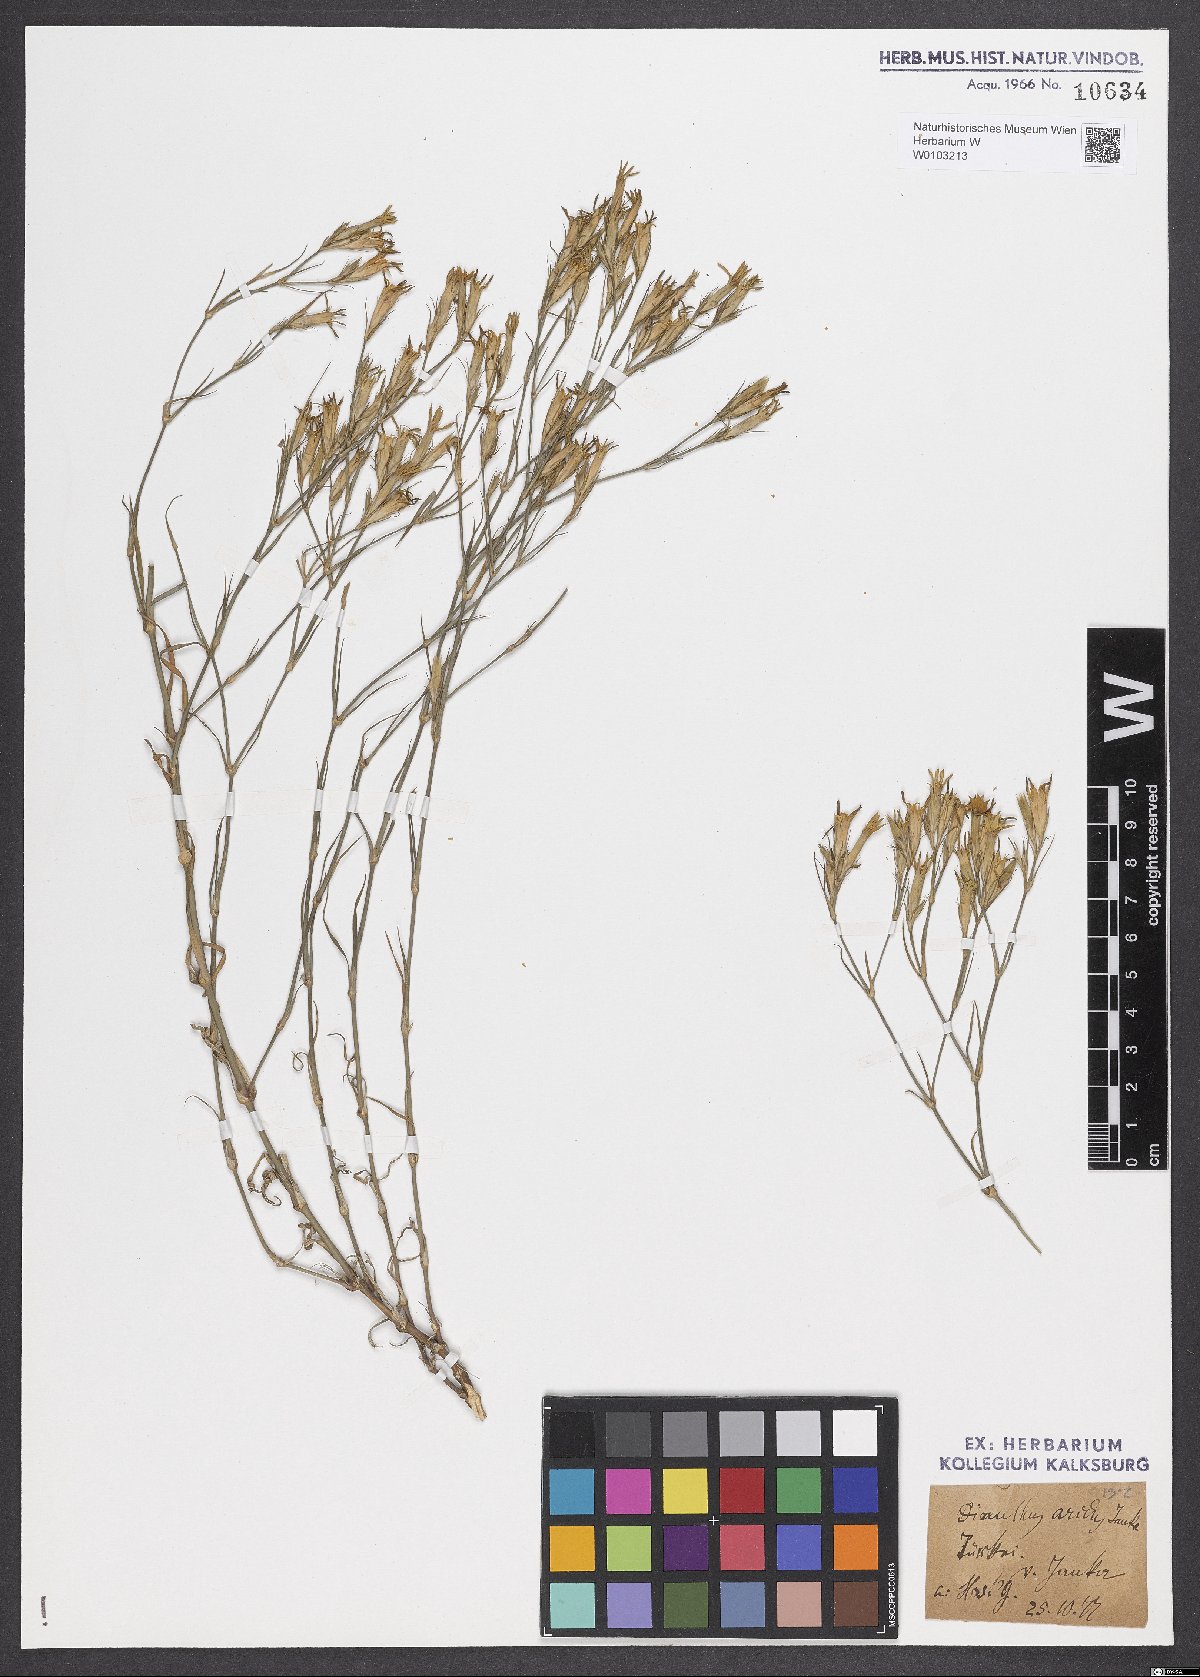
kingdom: Plantae
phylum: Tracheophyta
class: Magnoliopsida
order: Caryophyllales
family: Caryophyllaceae
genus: Dianthus
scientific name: Dianthus pallens
